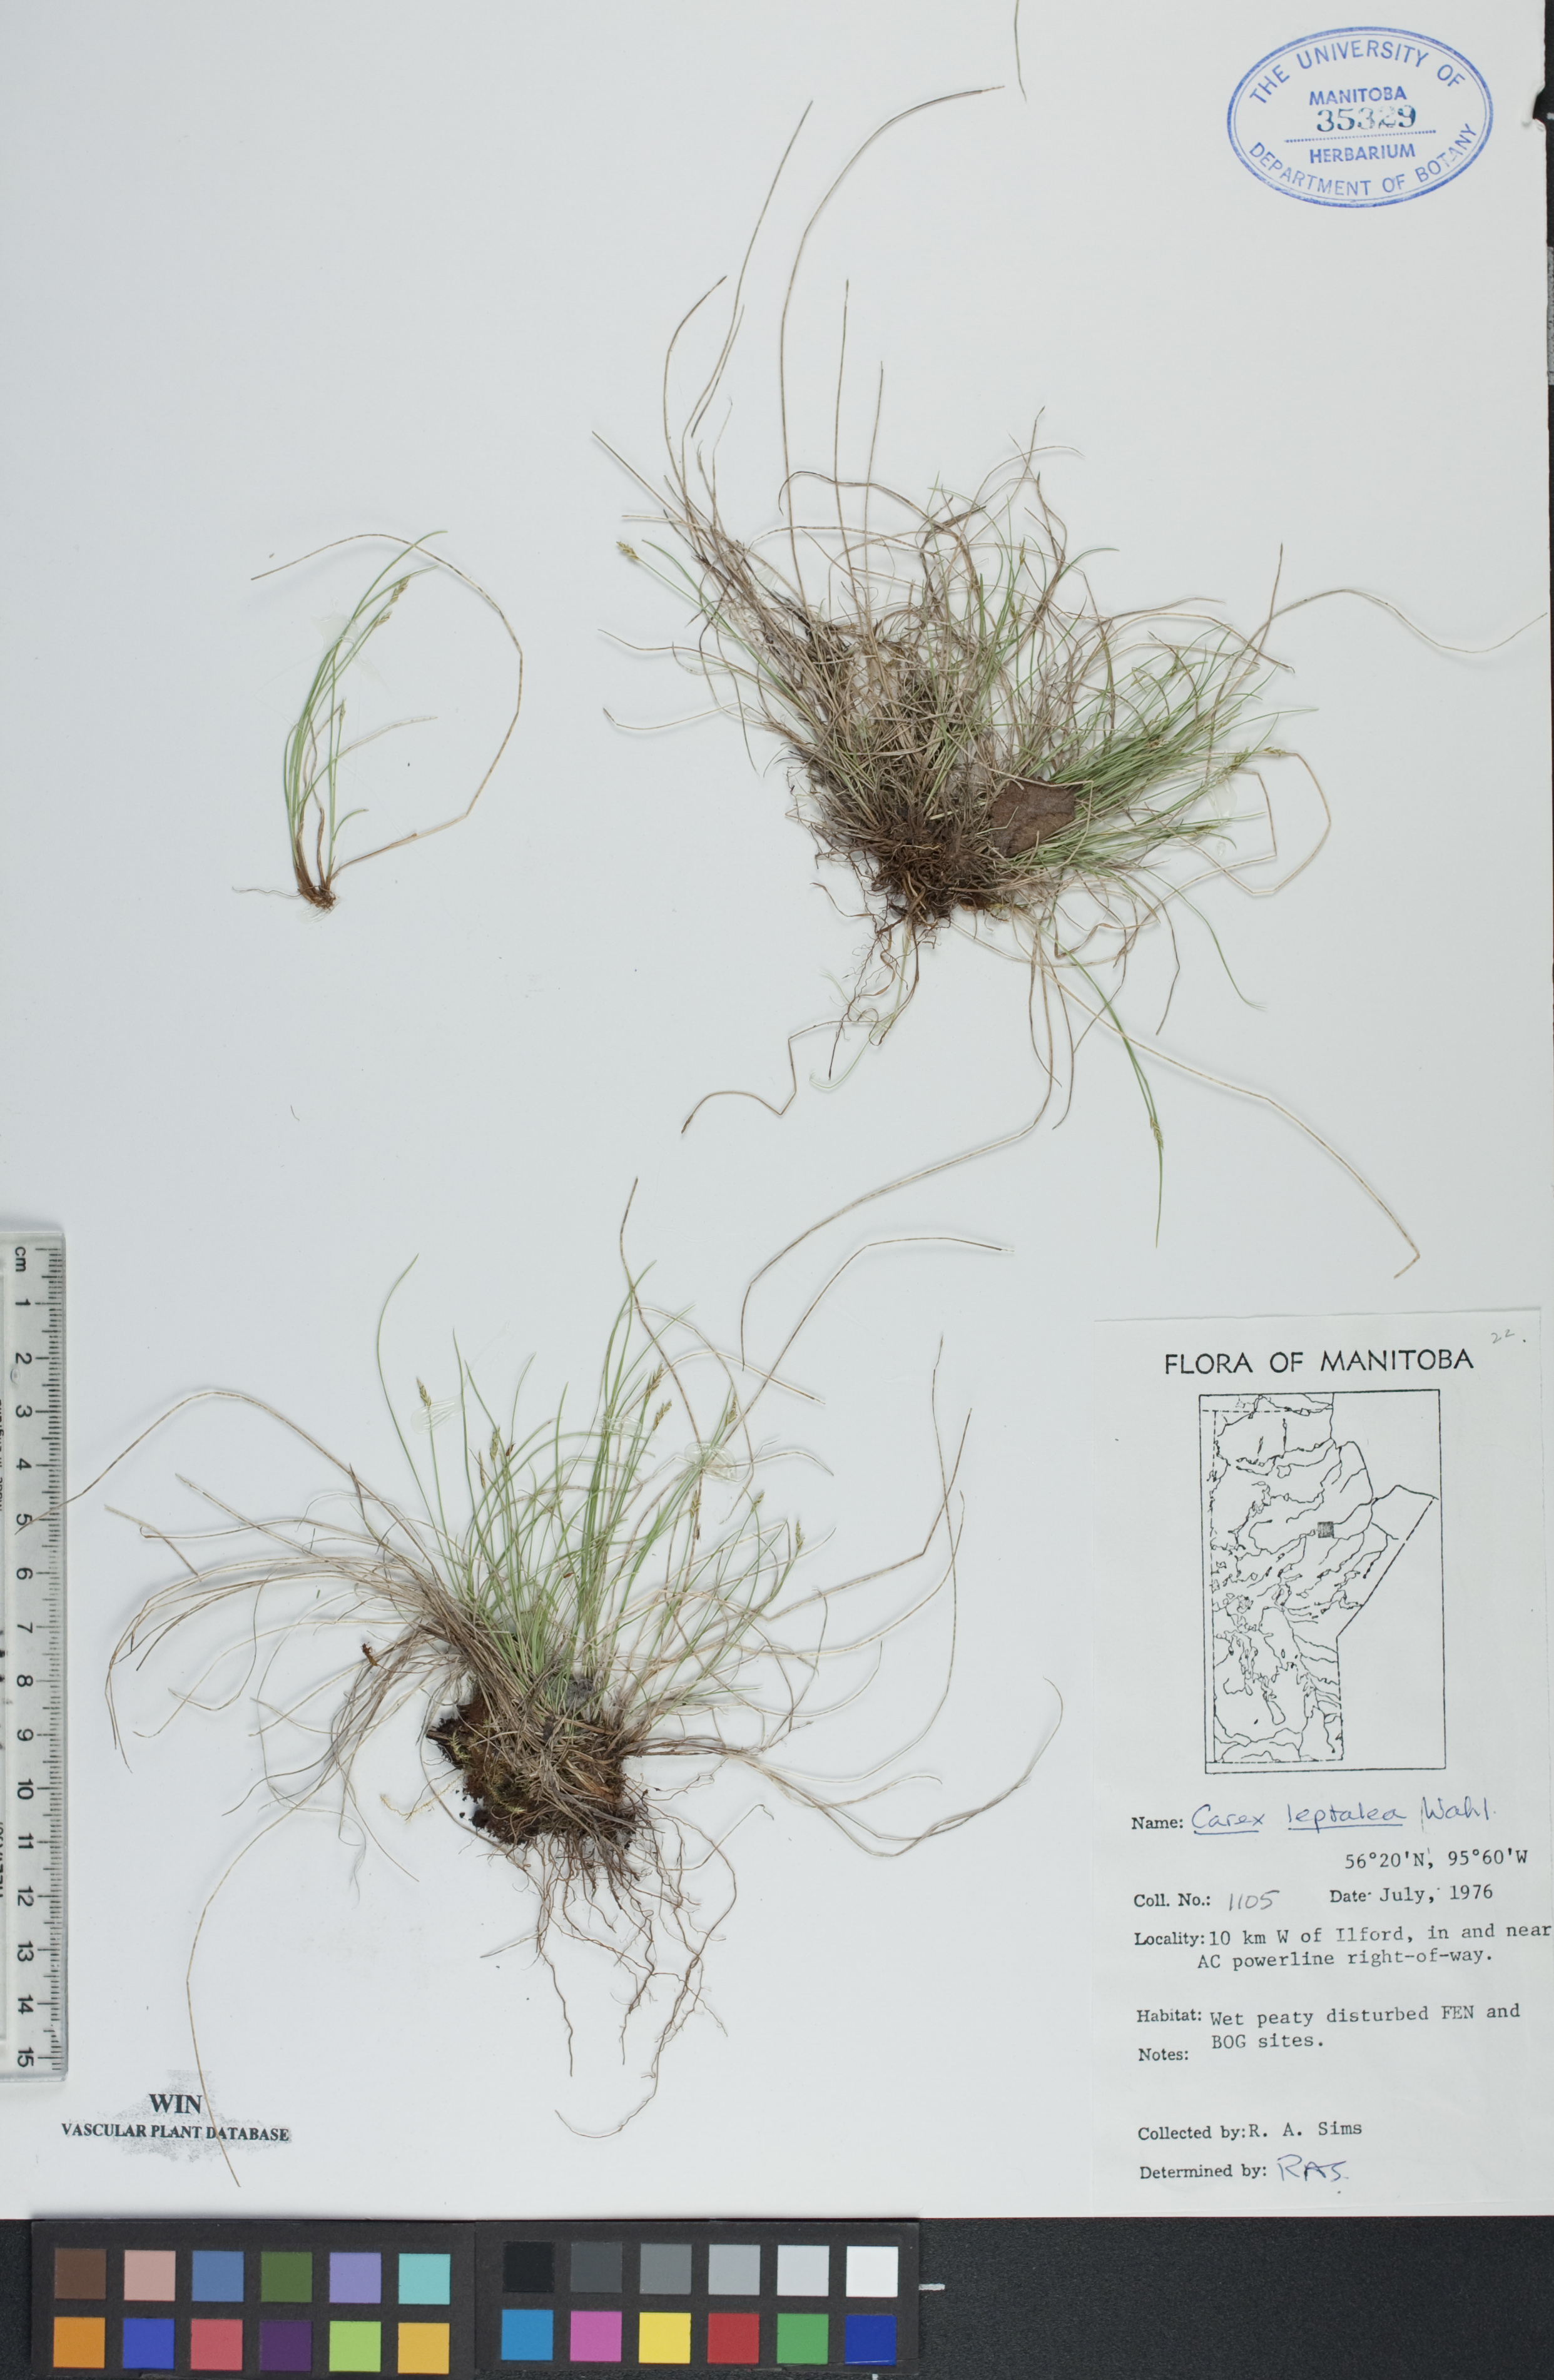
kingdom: Plantae
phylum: Tracheophyta
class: Liliopsida
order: Poales
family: Cyperaceae
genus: Carex
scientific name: Carex leptalea
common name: Bristly-stalked sedge
